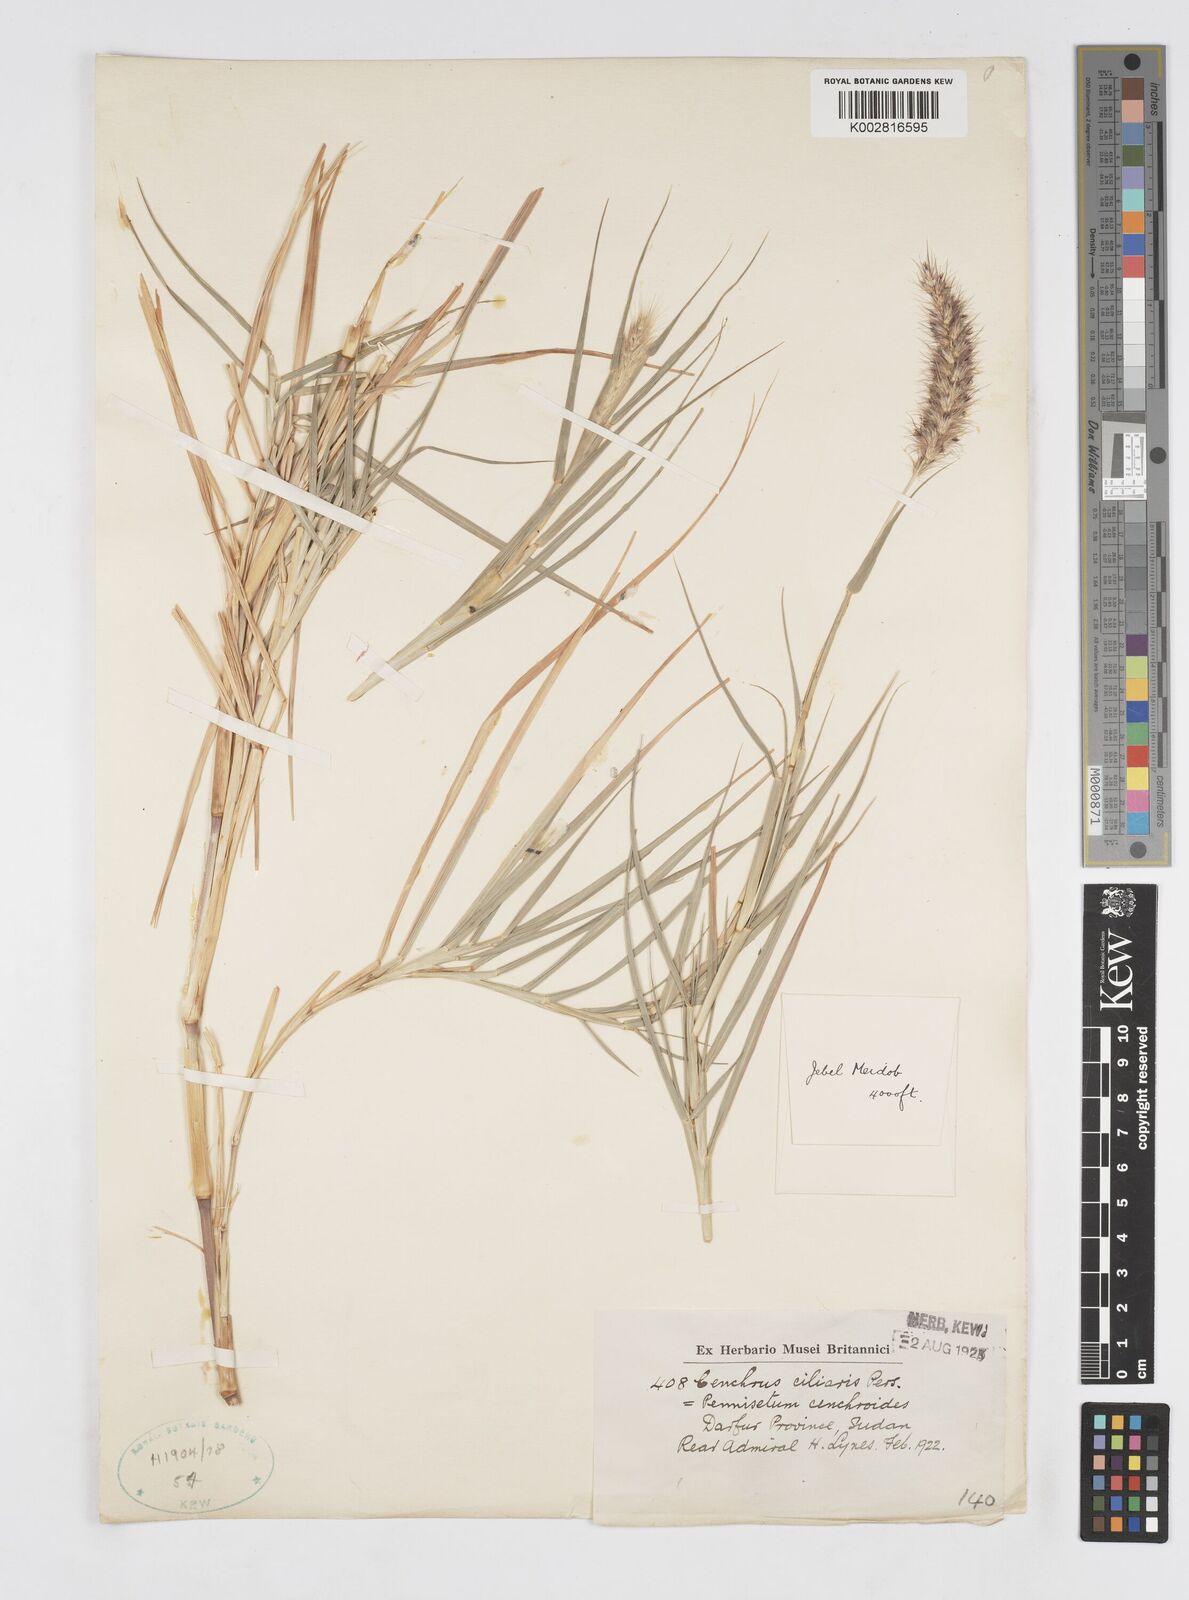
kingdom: Plantae
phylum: Tracheophyta
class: Liliopsida
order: Poales
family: Poaceae
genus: Cenchrus
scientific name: Cenchrus ciliaris
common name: Buffelgrass
